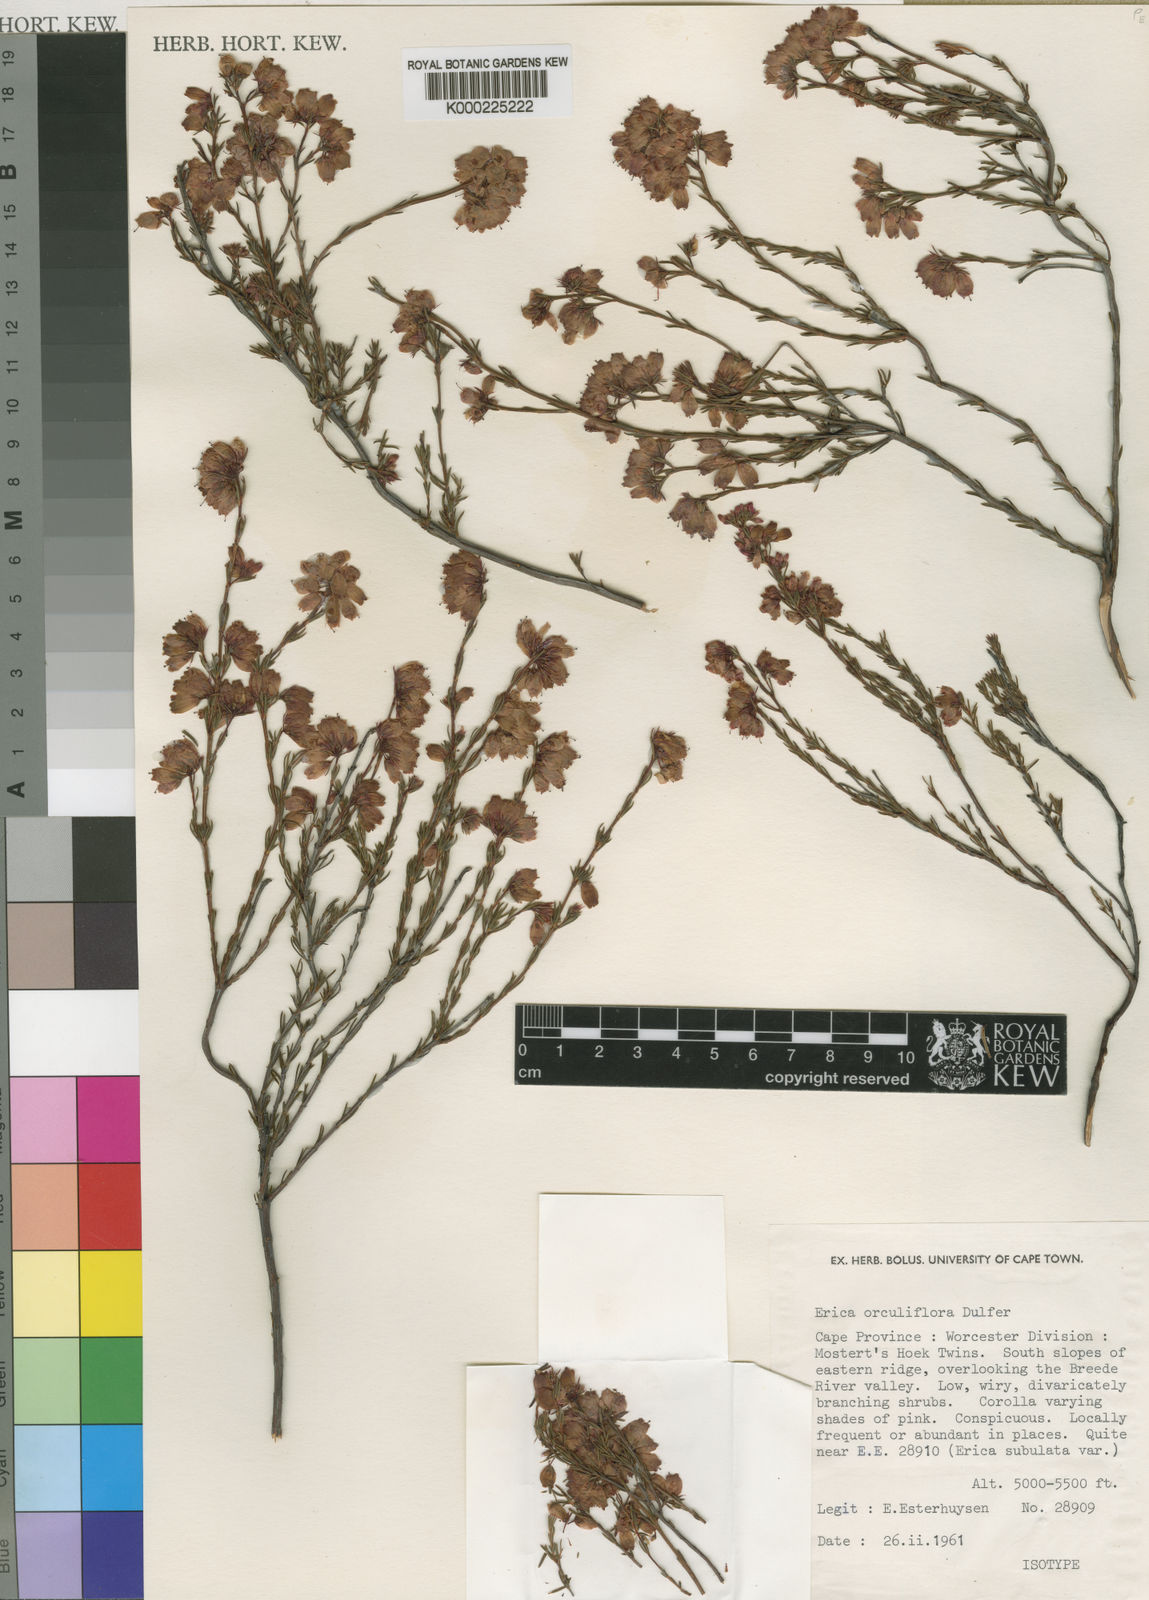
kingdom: Plantae
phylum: Tracheophyta
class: Magnoliopsida
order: Ericales
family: Ericaceae
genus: Erica
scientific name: Erica orculiflora
